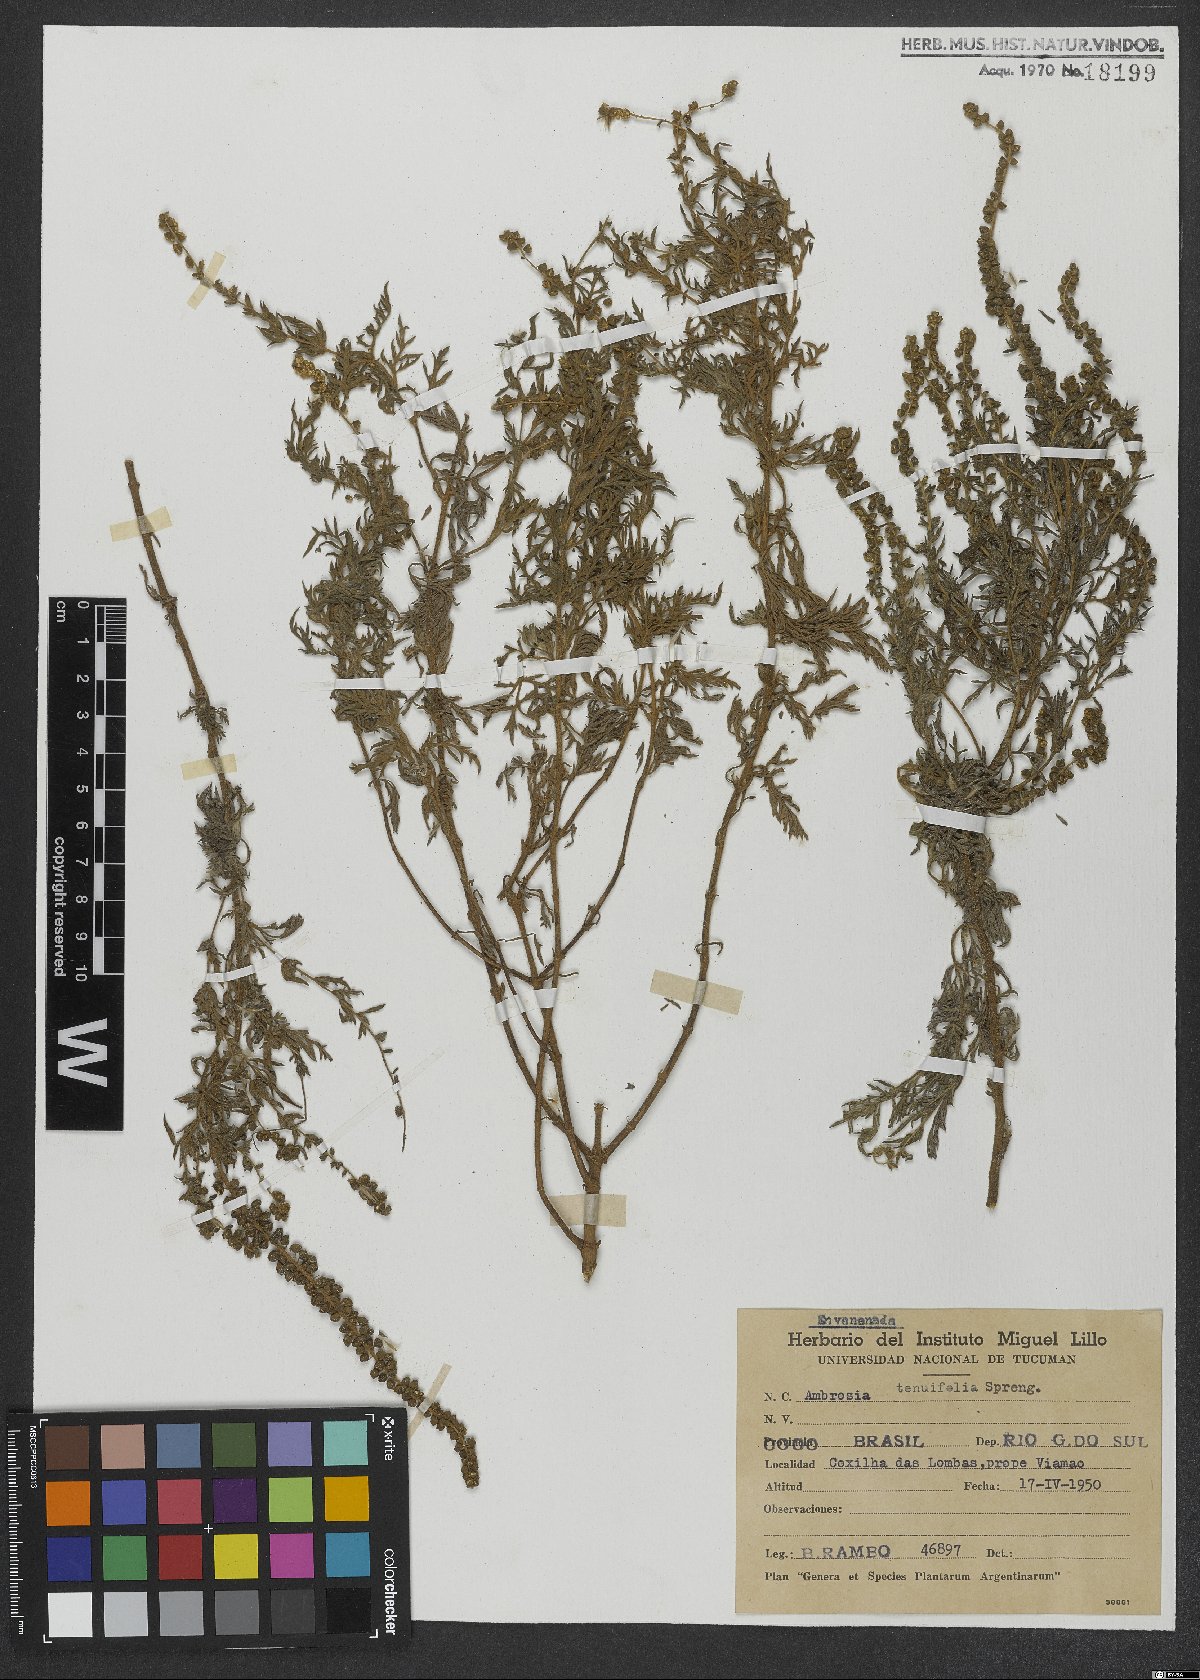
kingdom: Plantae
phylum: Tracheophyta
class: Magnoliopsida
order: Asterales
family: Asteraceae
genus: Ambrosia
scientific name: Ambrosia tenuifolia
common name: Lacy ambrosia
